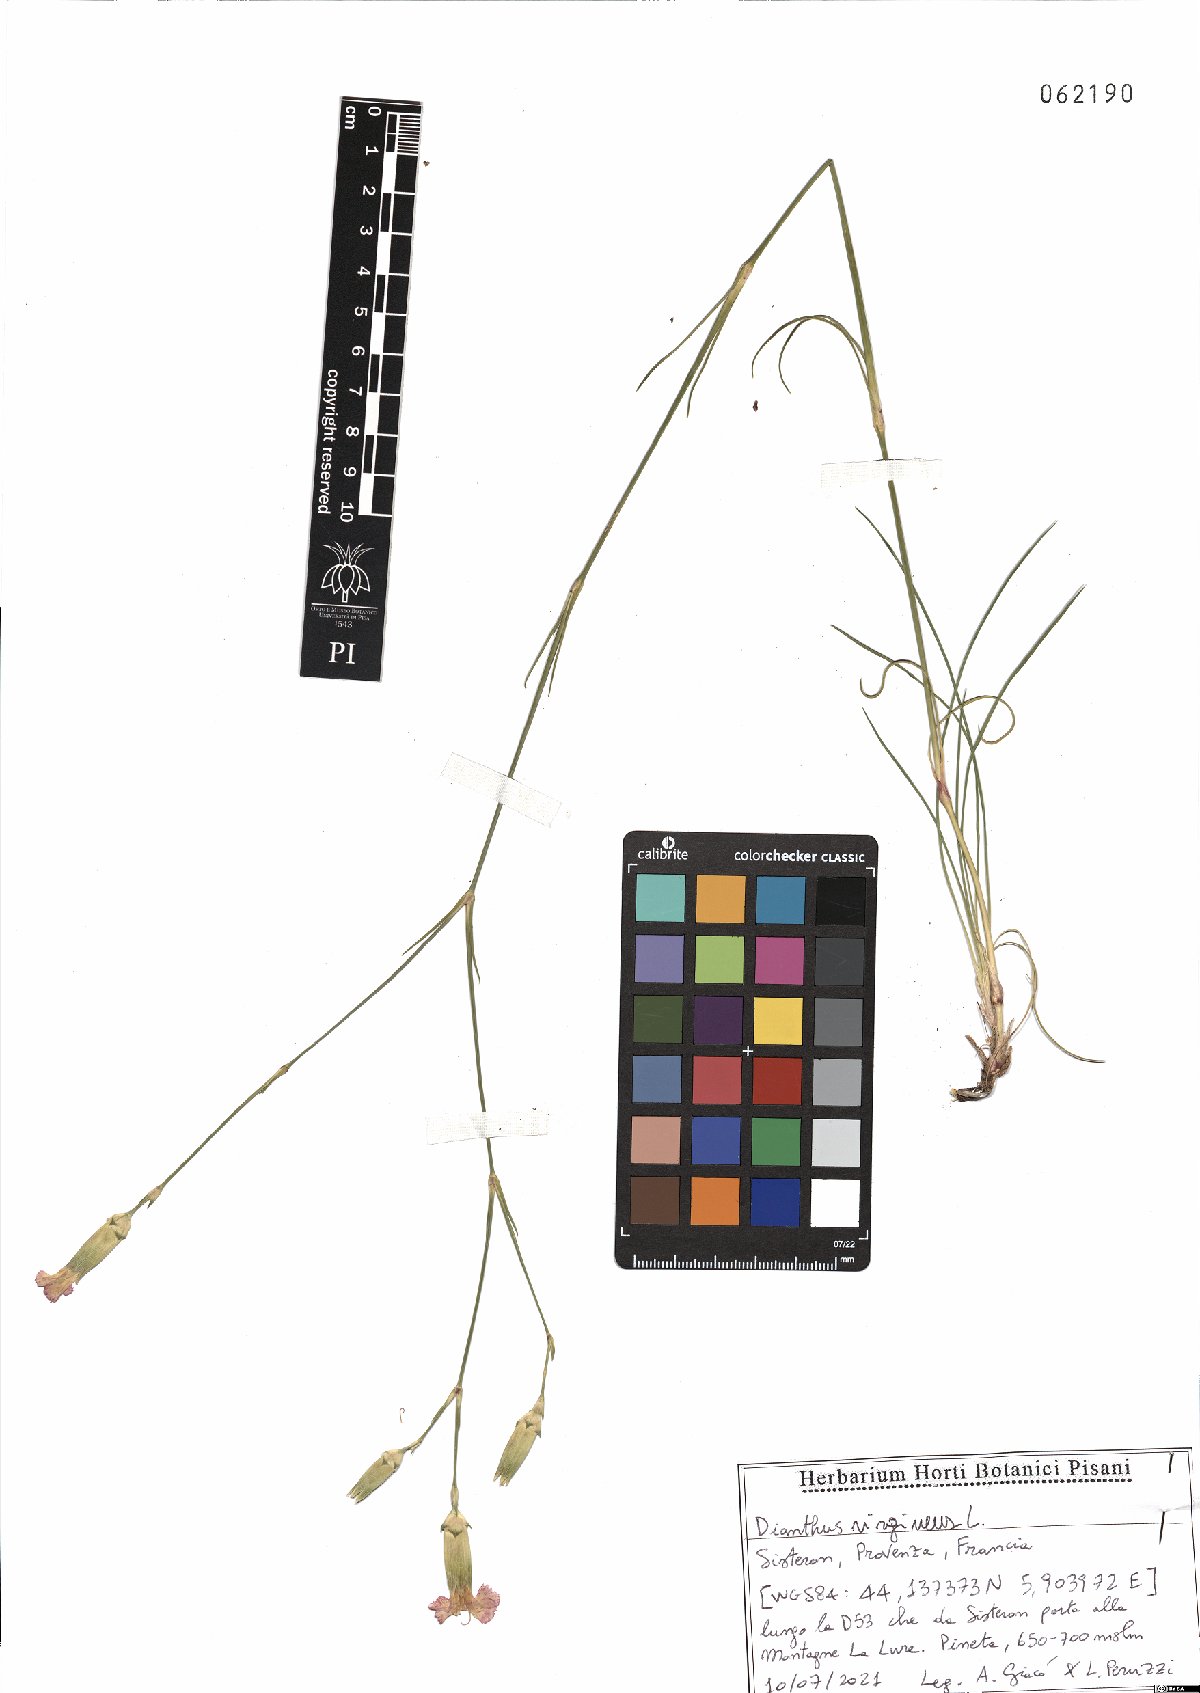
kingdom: Plantae
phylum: Tracheophyta
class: Magnoliopsida
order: Caryophyllales
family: Caryophyllaceae
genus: Dianthus
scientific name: Dianthus virgineus
